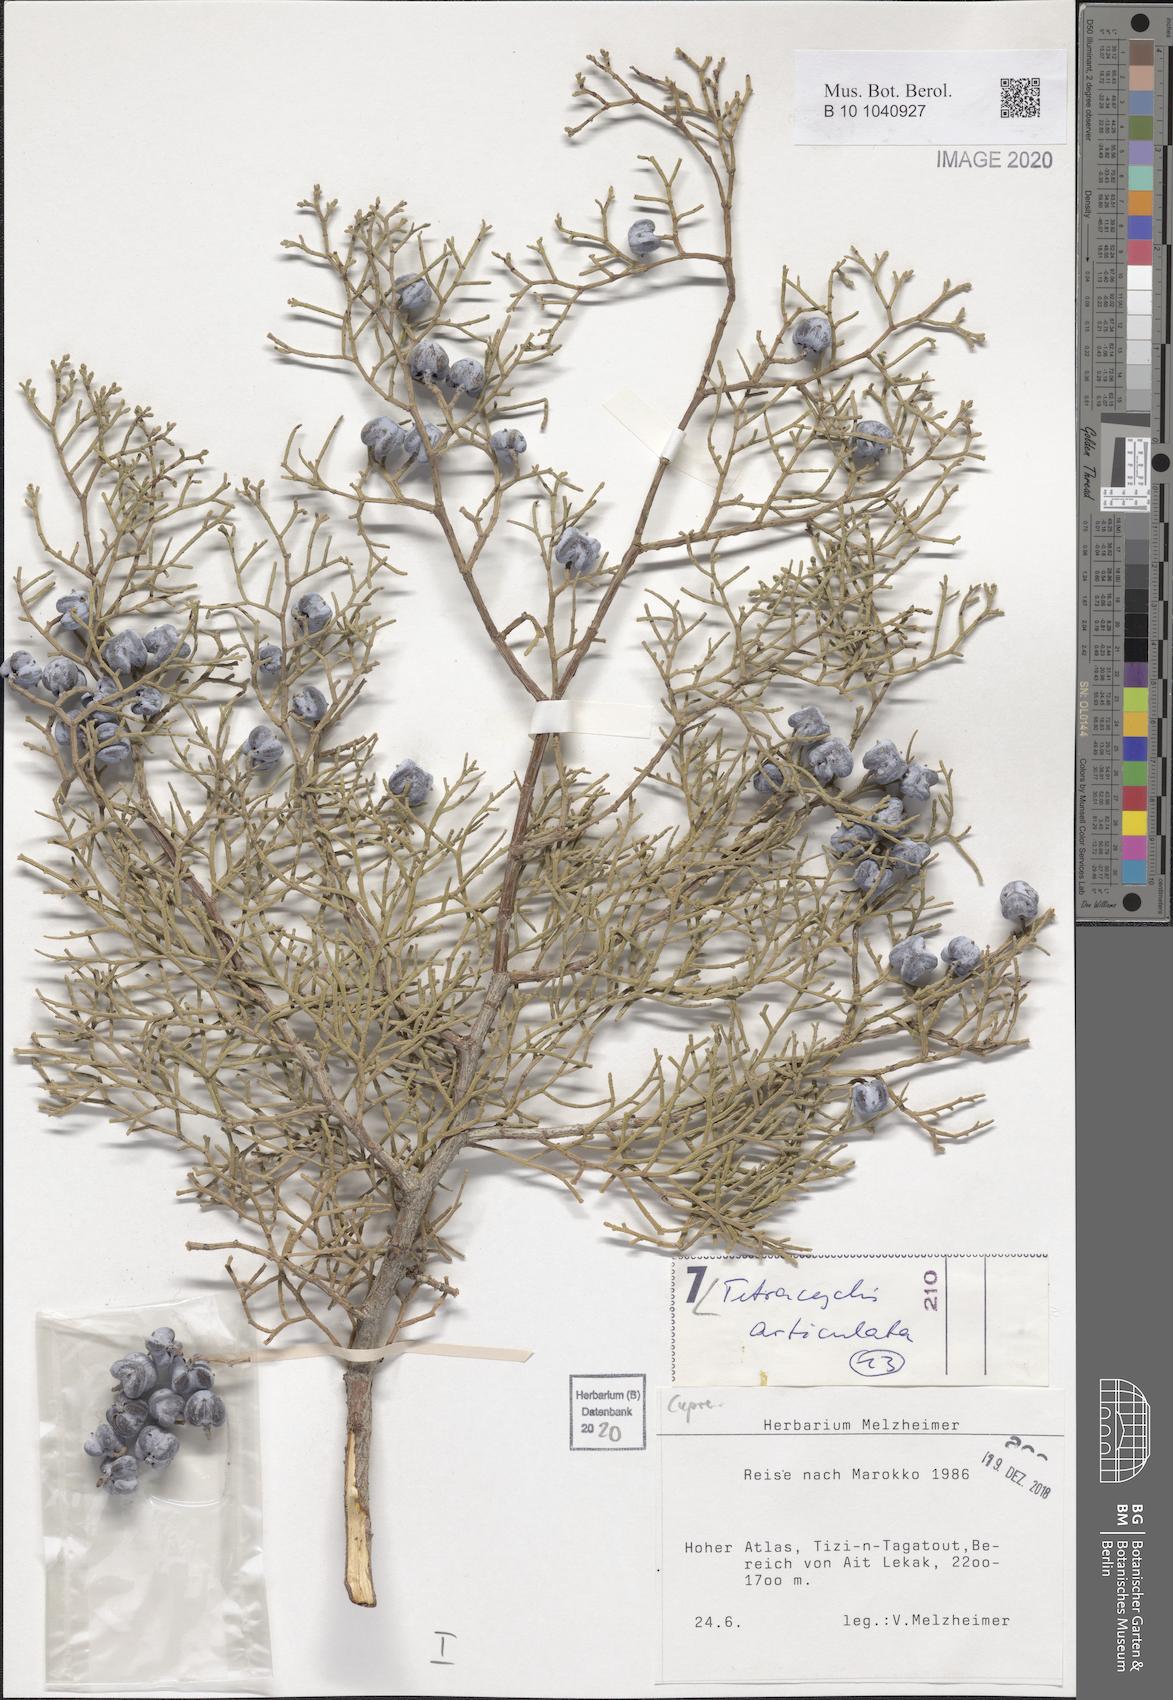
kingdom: Plantae
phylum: Tracheophyta
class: Pinopsida
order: Pinales
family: Cupressaceae
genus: Tetraclinis
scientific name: Tetraclinis articulata
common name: Sandarac
